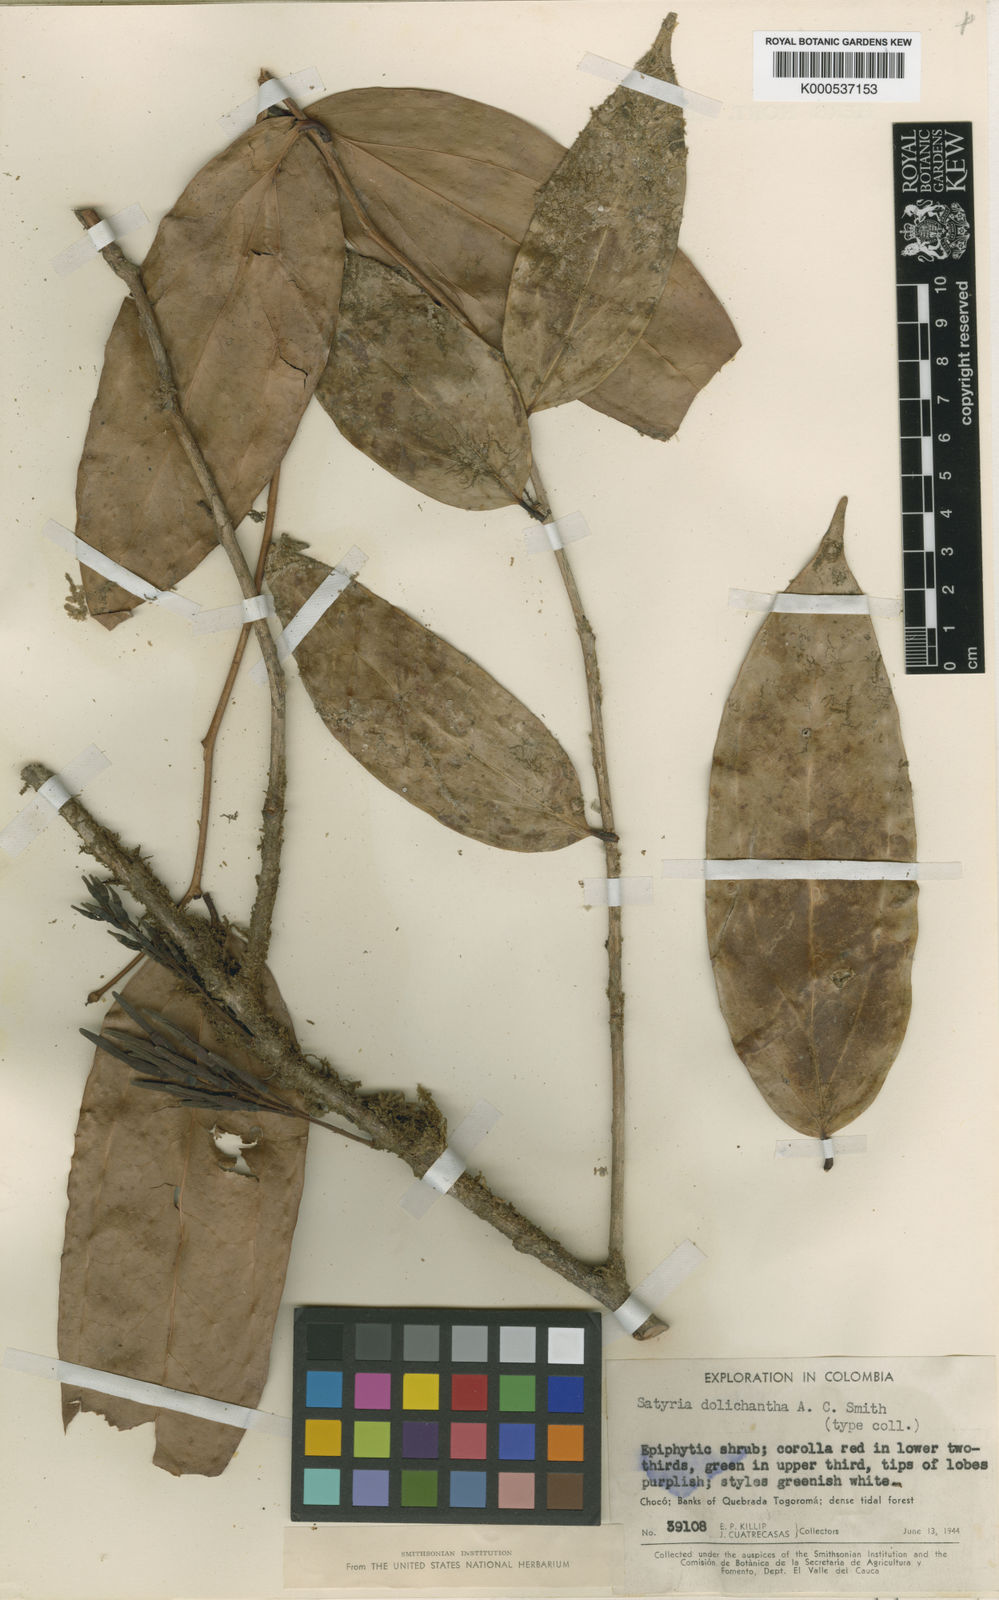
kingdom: Plantae
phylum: Tracheophyta
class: Magnoliopsida
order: Ericales
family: Ericaceae
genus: Satyria
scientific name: Satyria dolichantha
